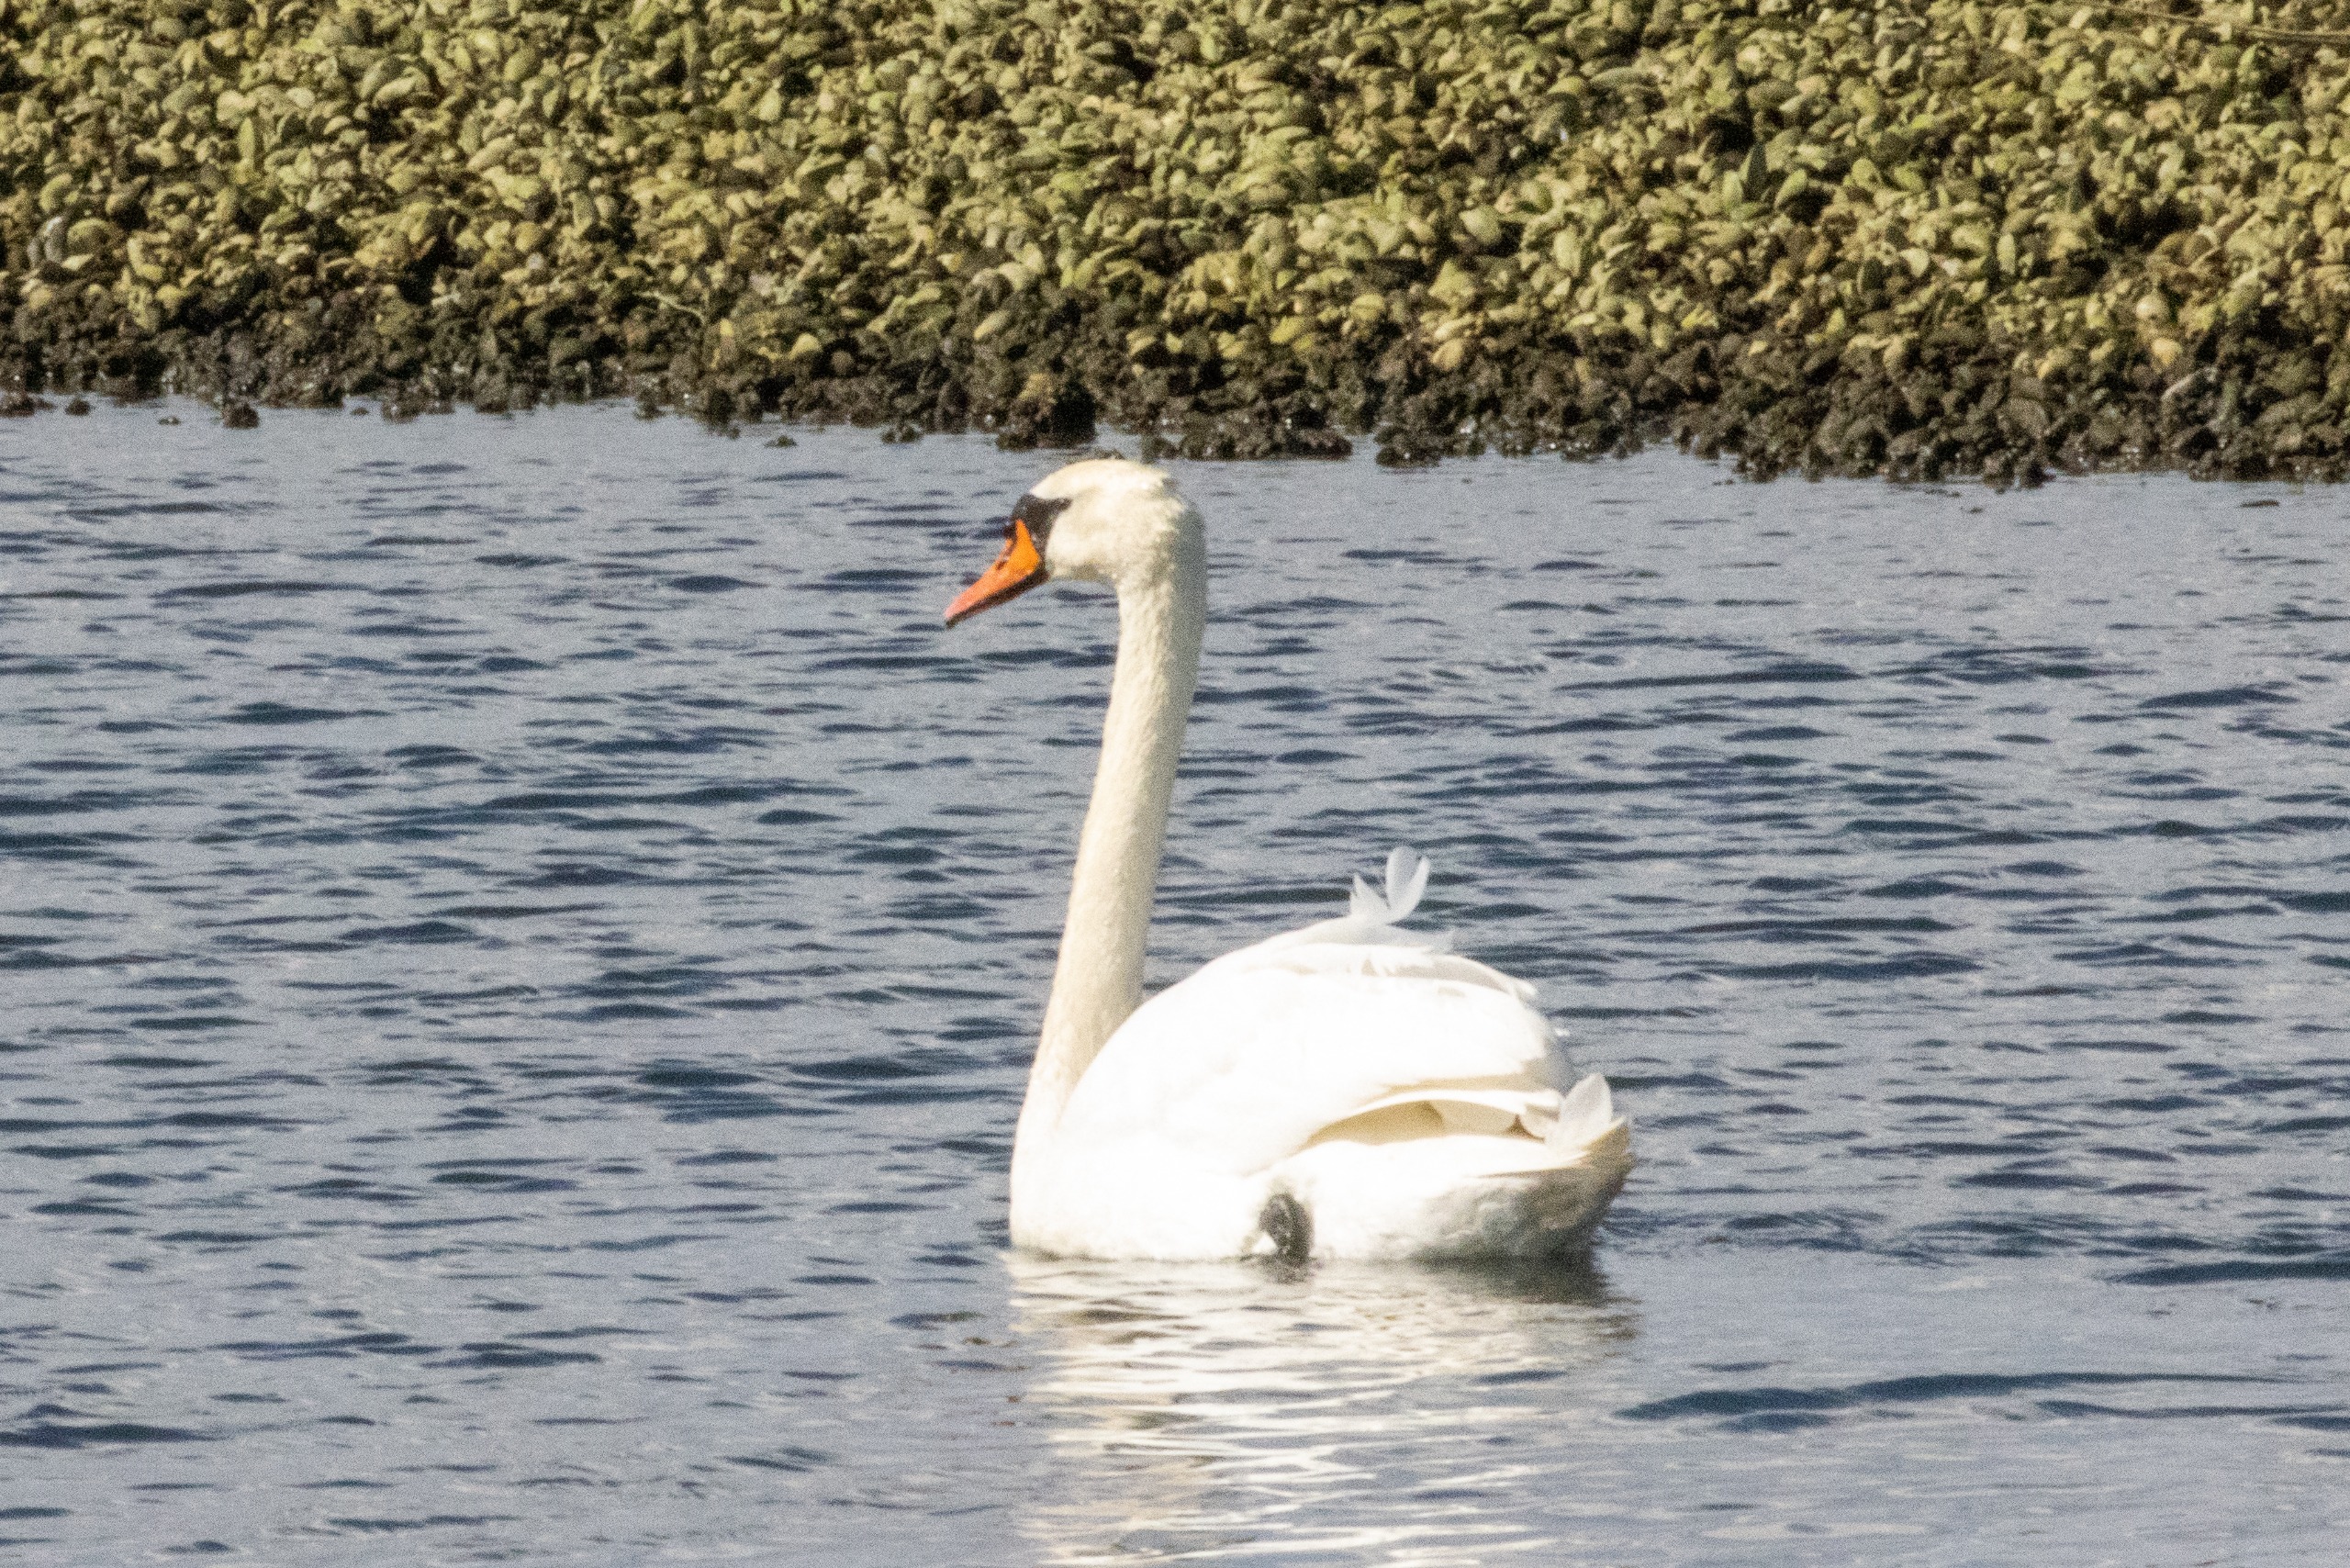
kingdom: Animalia
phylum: Chordata
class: Aves
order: Anseriformes
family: Anatidae
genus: Cygnus
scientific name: Cygnus olor
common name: Knopsvane
